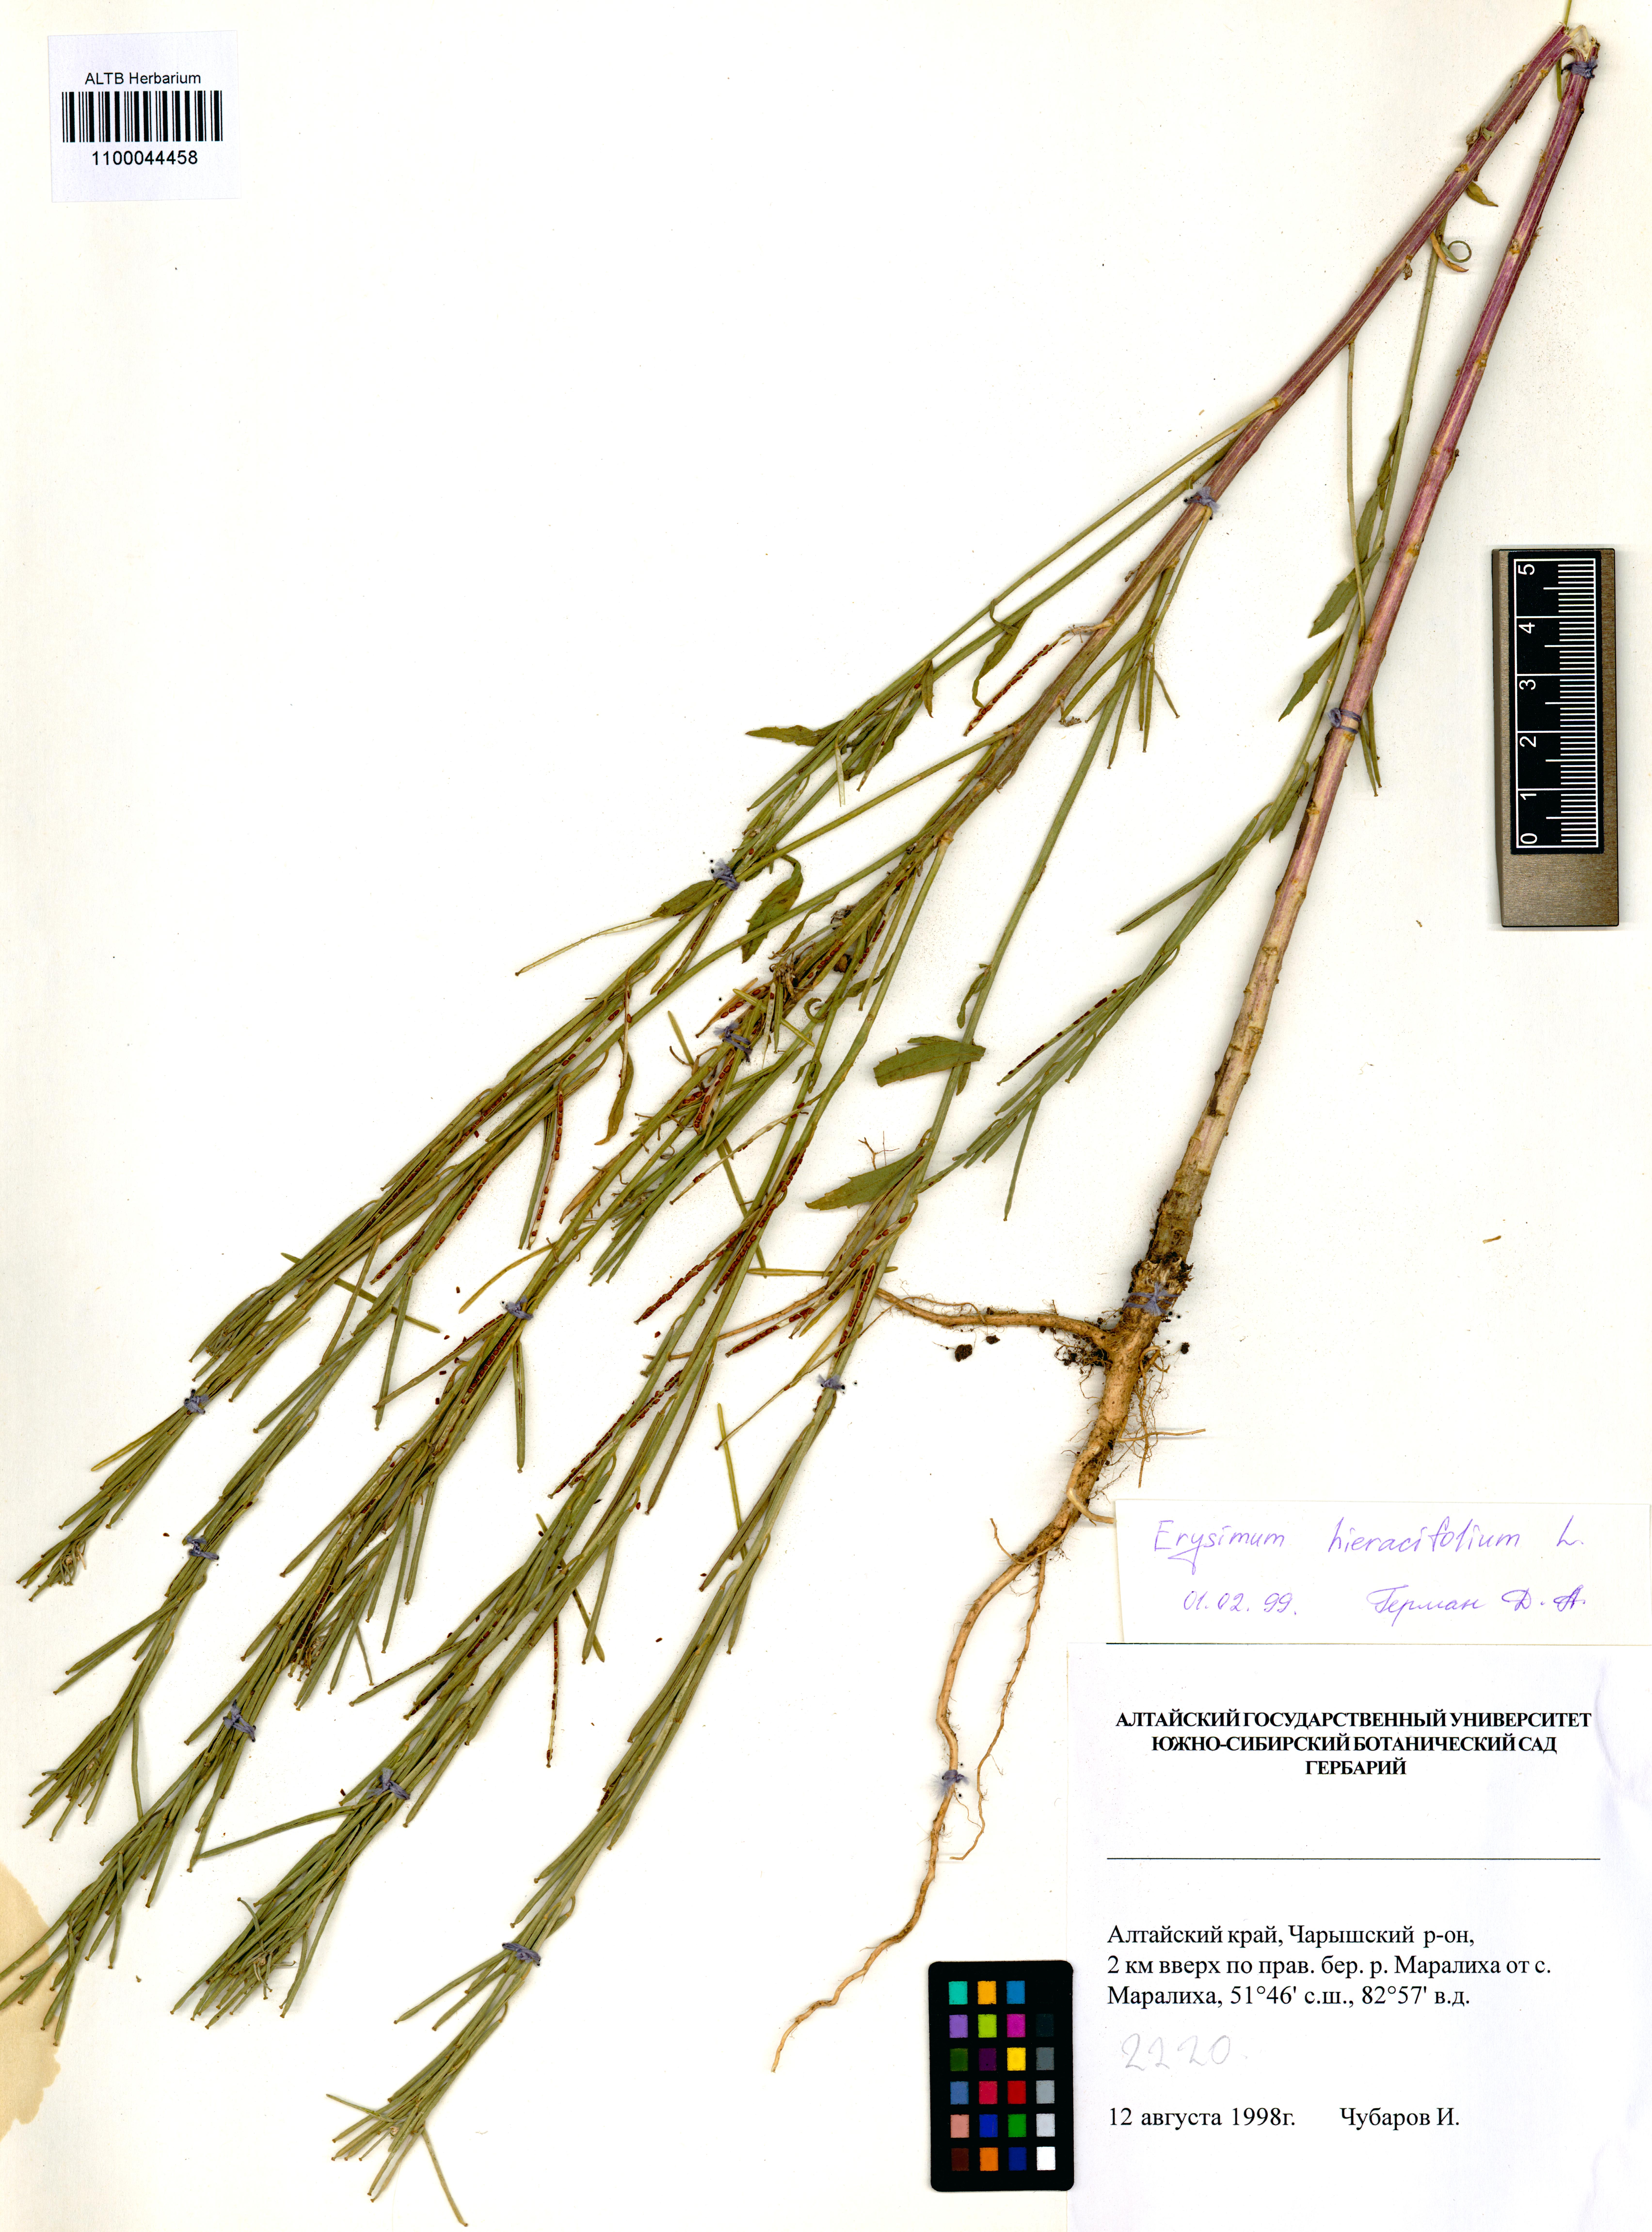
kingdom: Plantae
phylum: Tracheophyta
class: Magnoliopsida
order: Brassicales
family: Brassicaceae
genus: Erysimum
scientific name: Erysimum hieraciifolium
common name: European wallflower
